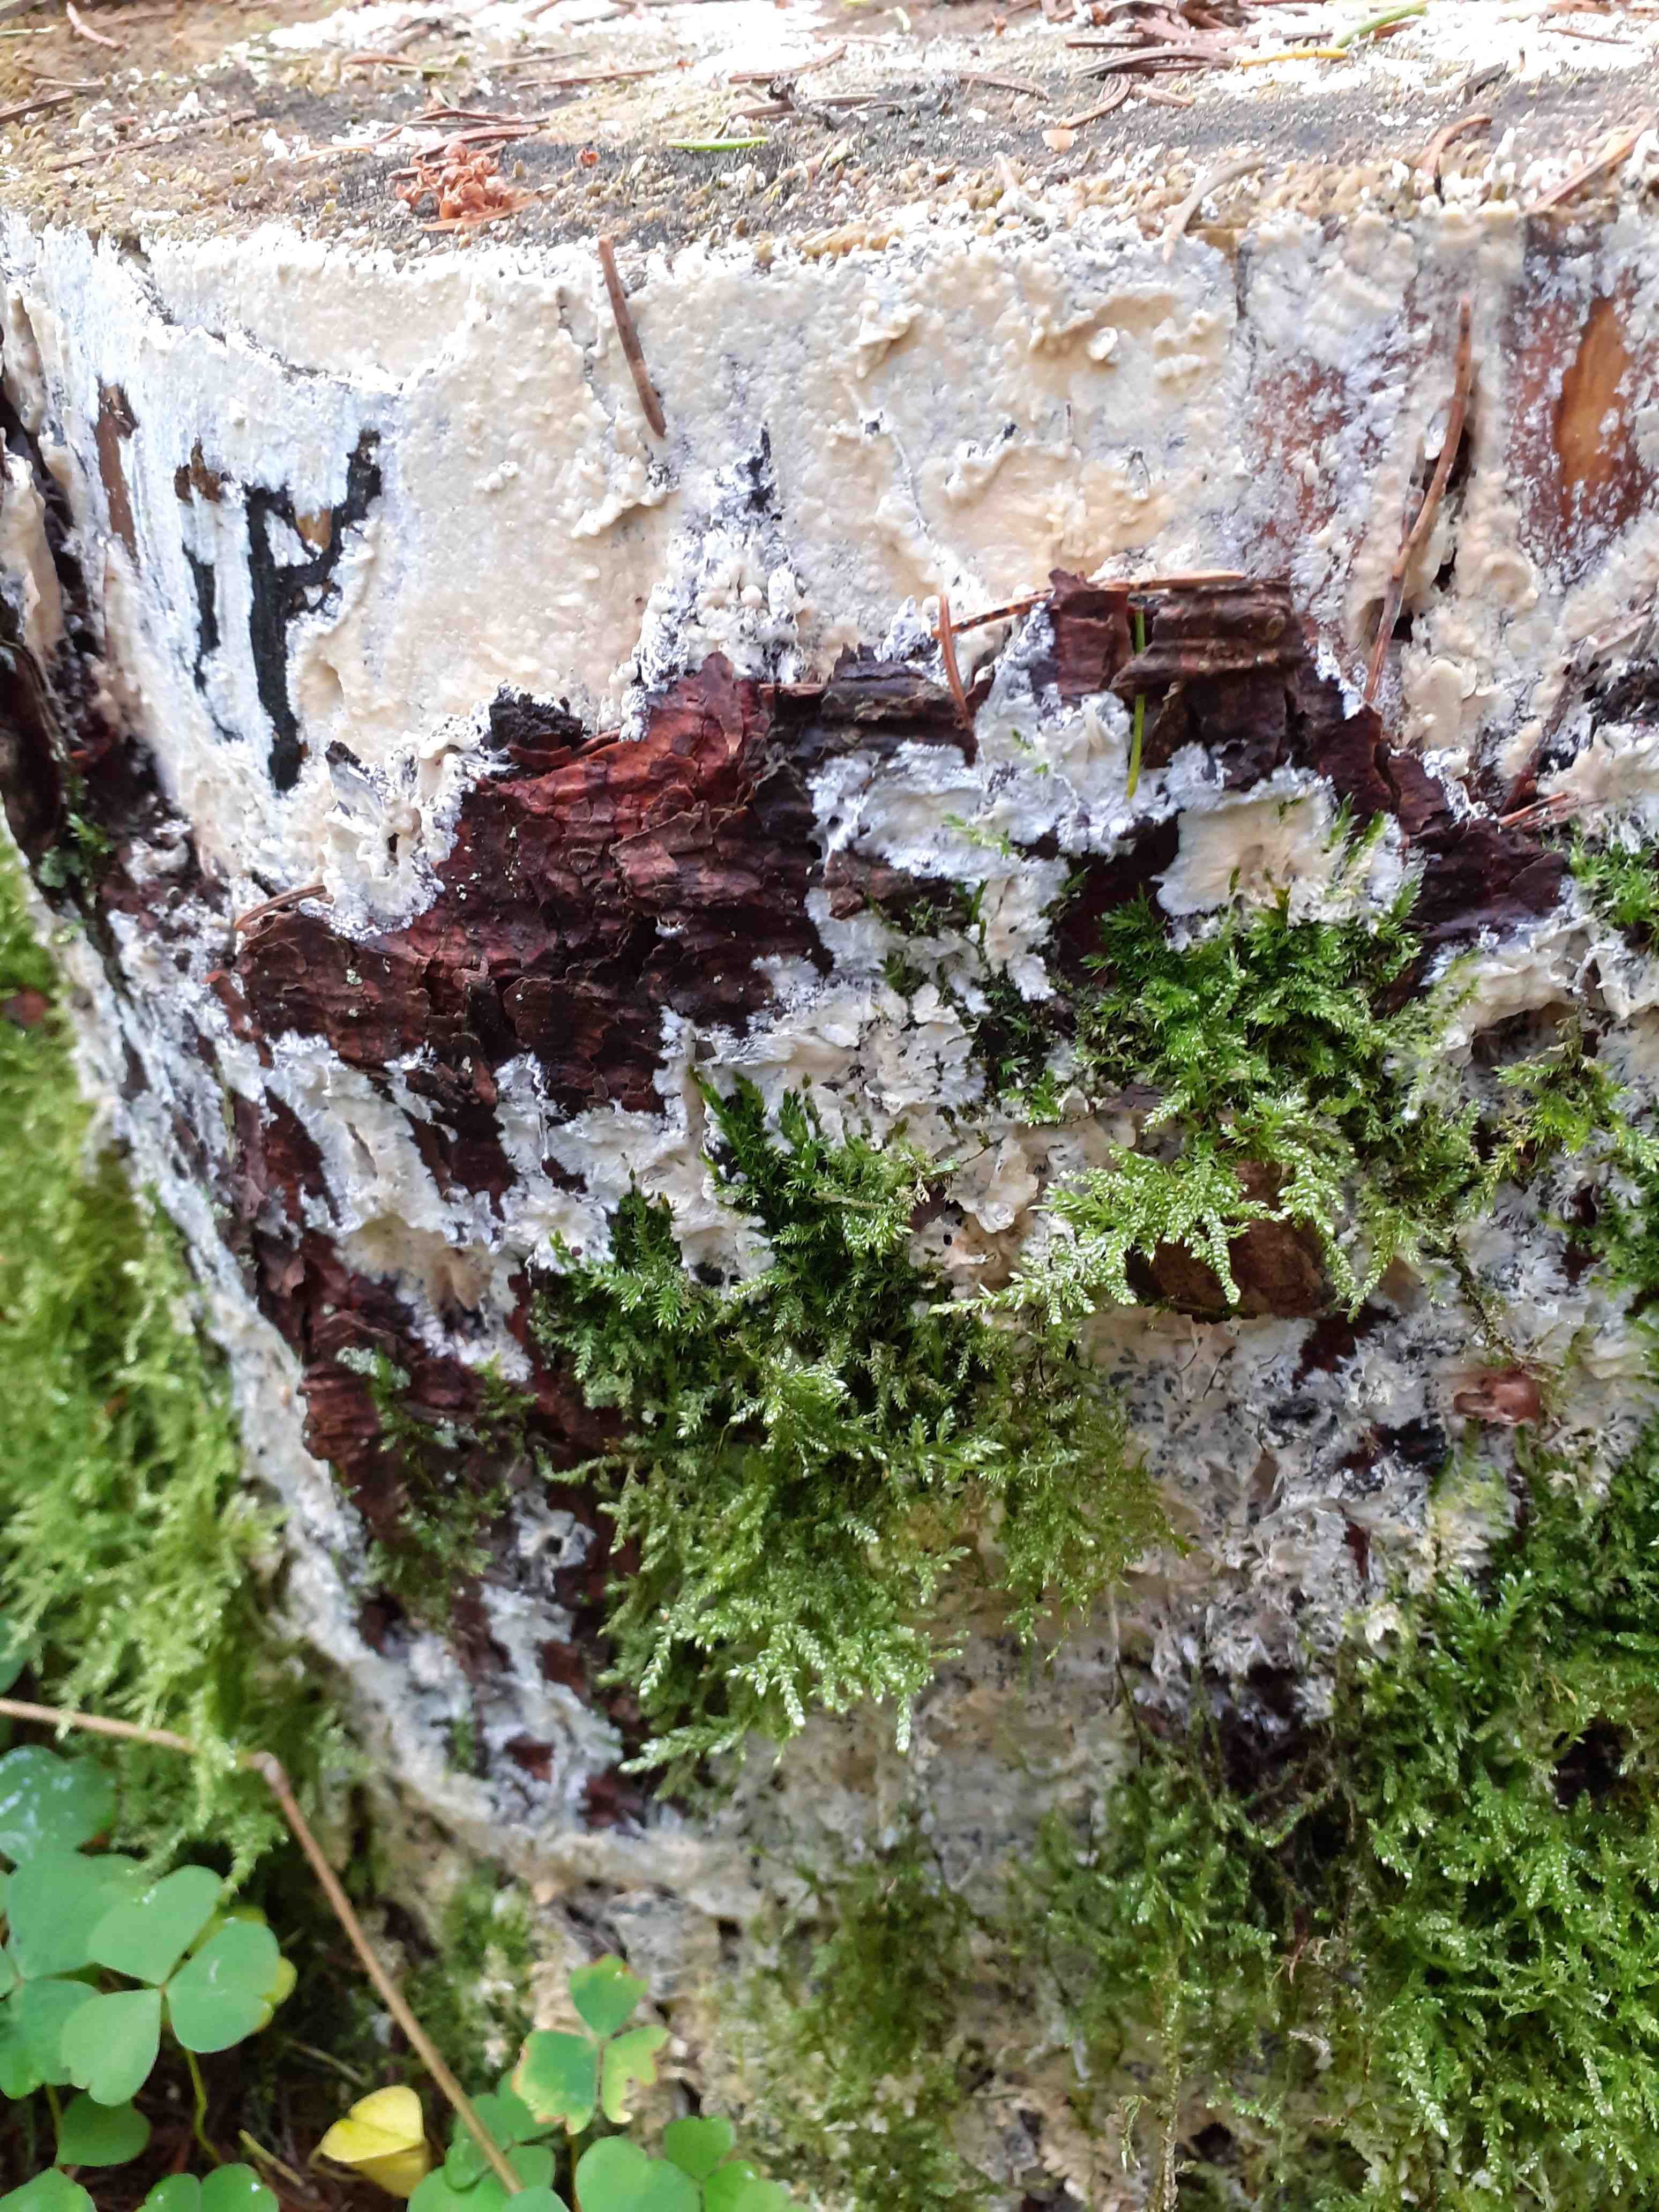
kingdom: Fungi
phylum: Basidiomycota
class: Agaricomycetes
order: Russulales
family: Peniophoraceae
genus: Gloiothele
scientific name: Gloiothele citrina
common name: citronskorpe
